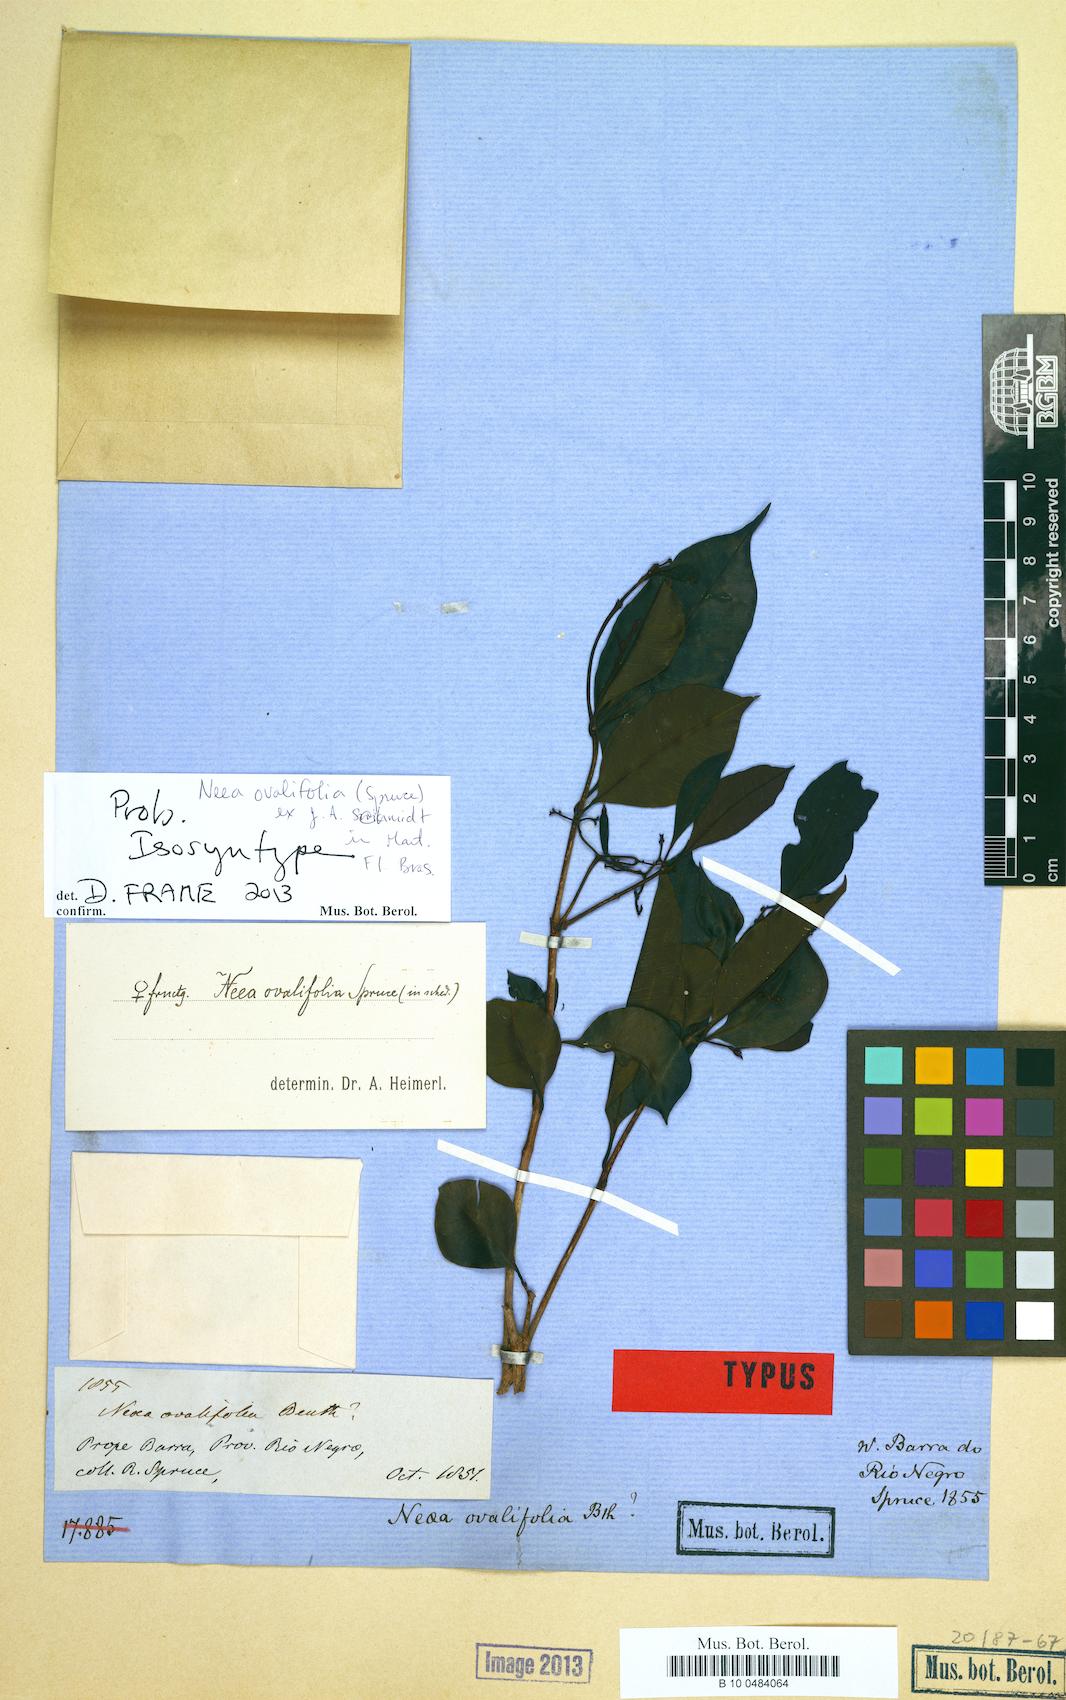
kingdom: Plantae
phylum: Tracheophyta
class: Magnoliopsida
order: Caryophyllales
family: Nyctaginaceae
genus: Neea
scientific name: Neea ovalifolia
